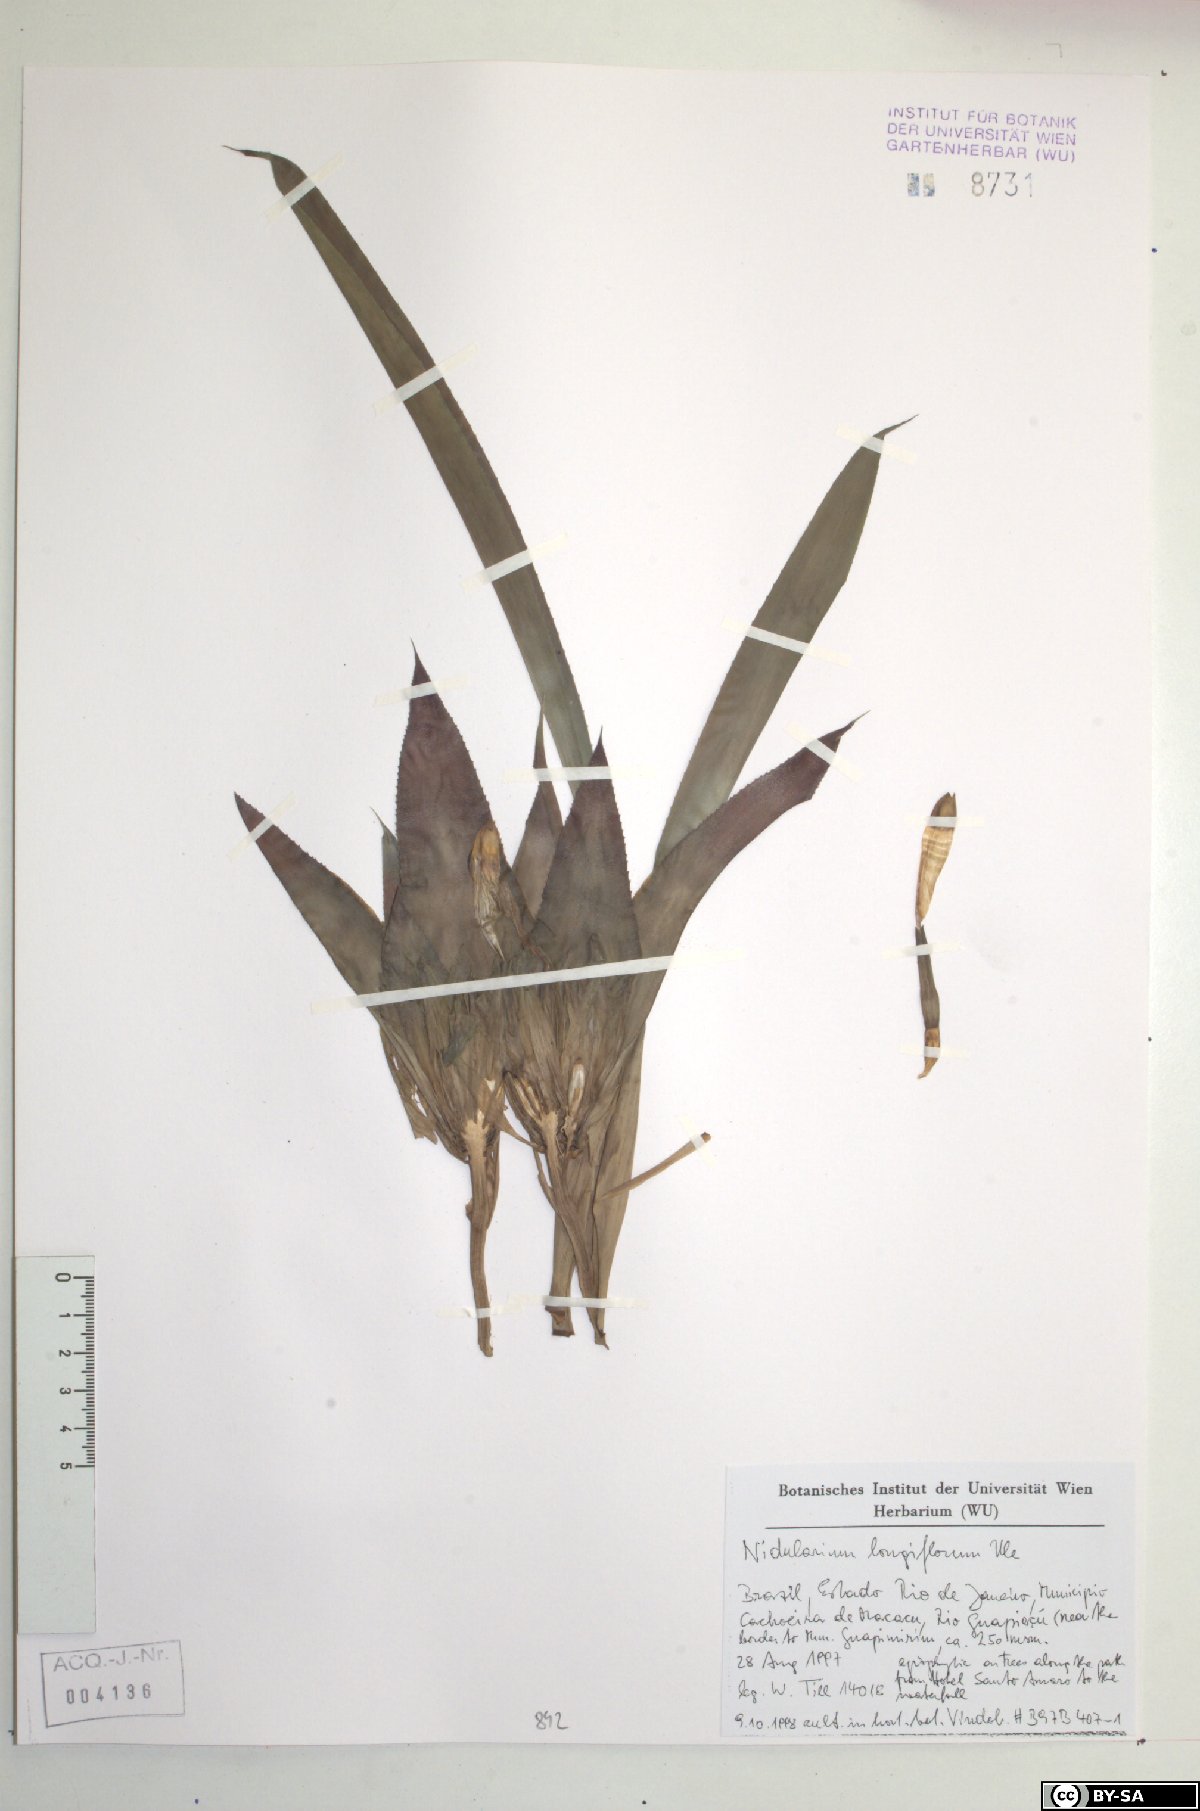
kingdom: Plantae
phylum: Tracheophyta
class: Liliopsida
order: Poales
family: Bromeliaceae
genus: Nidularium
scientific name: Nidularium longiflorum
